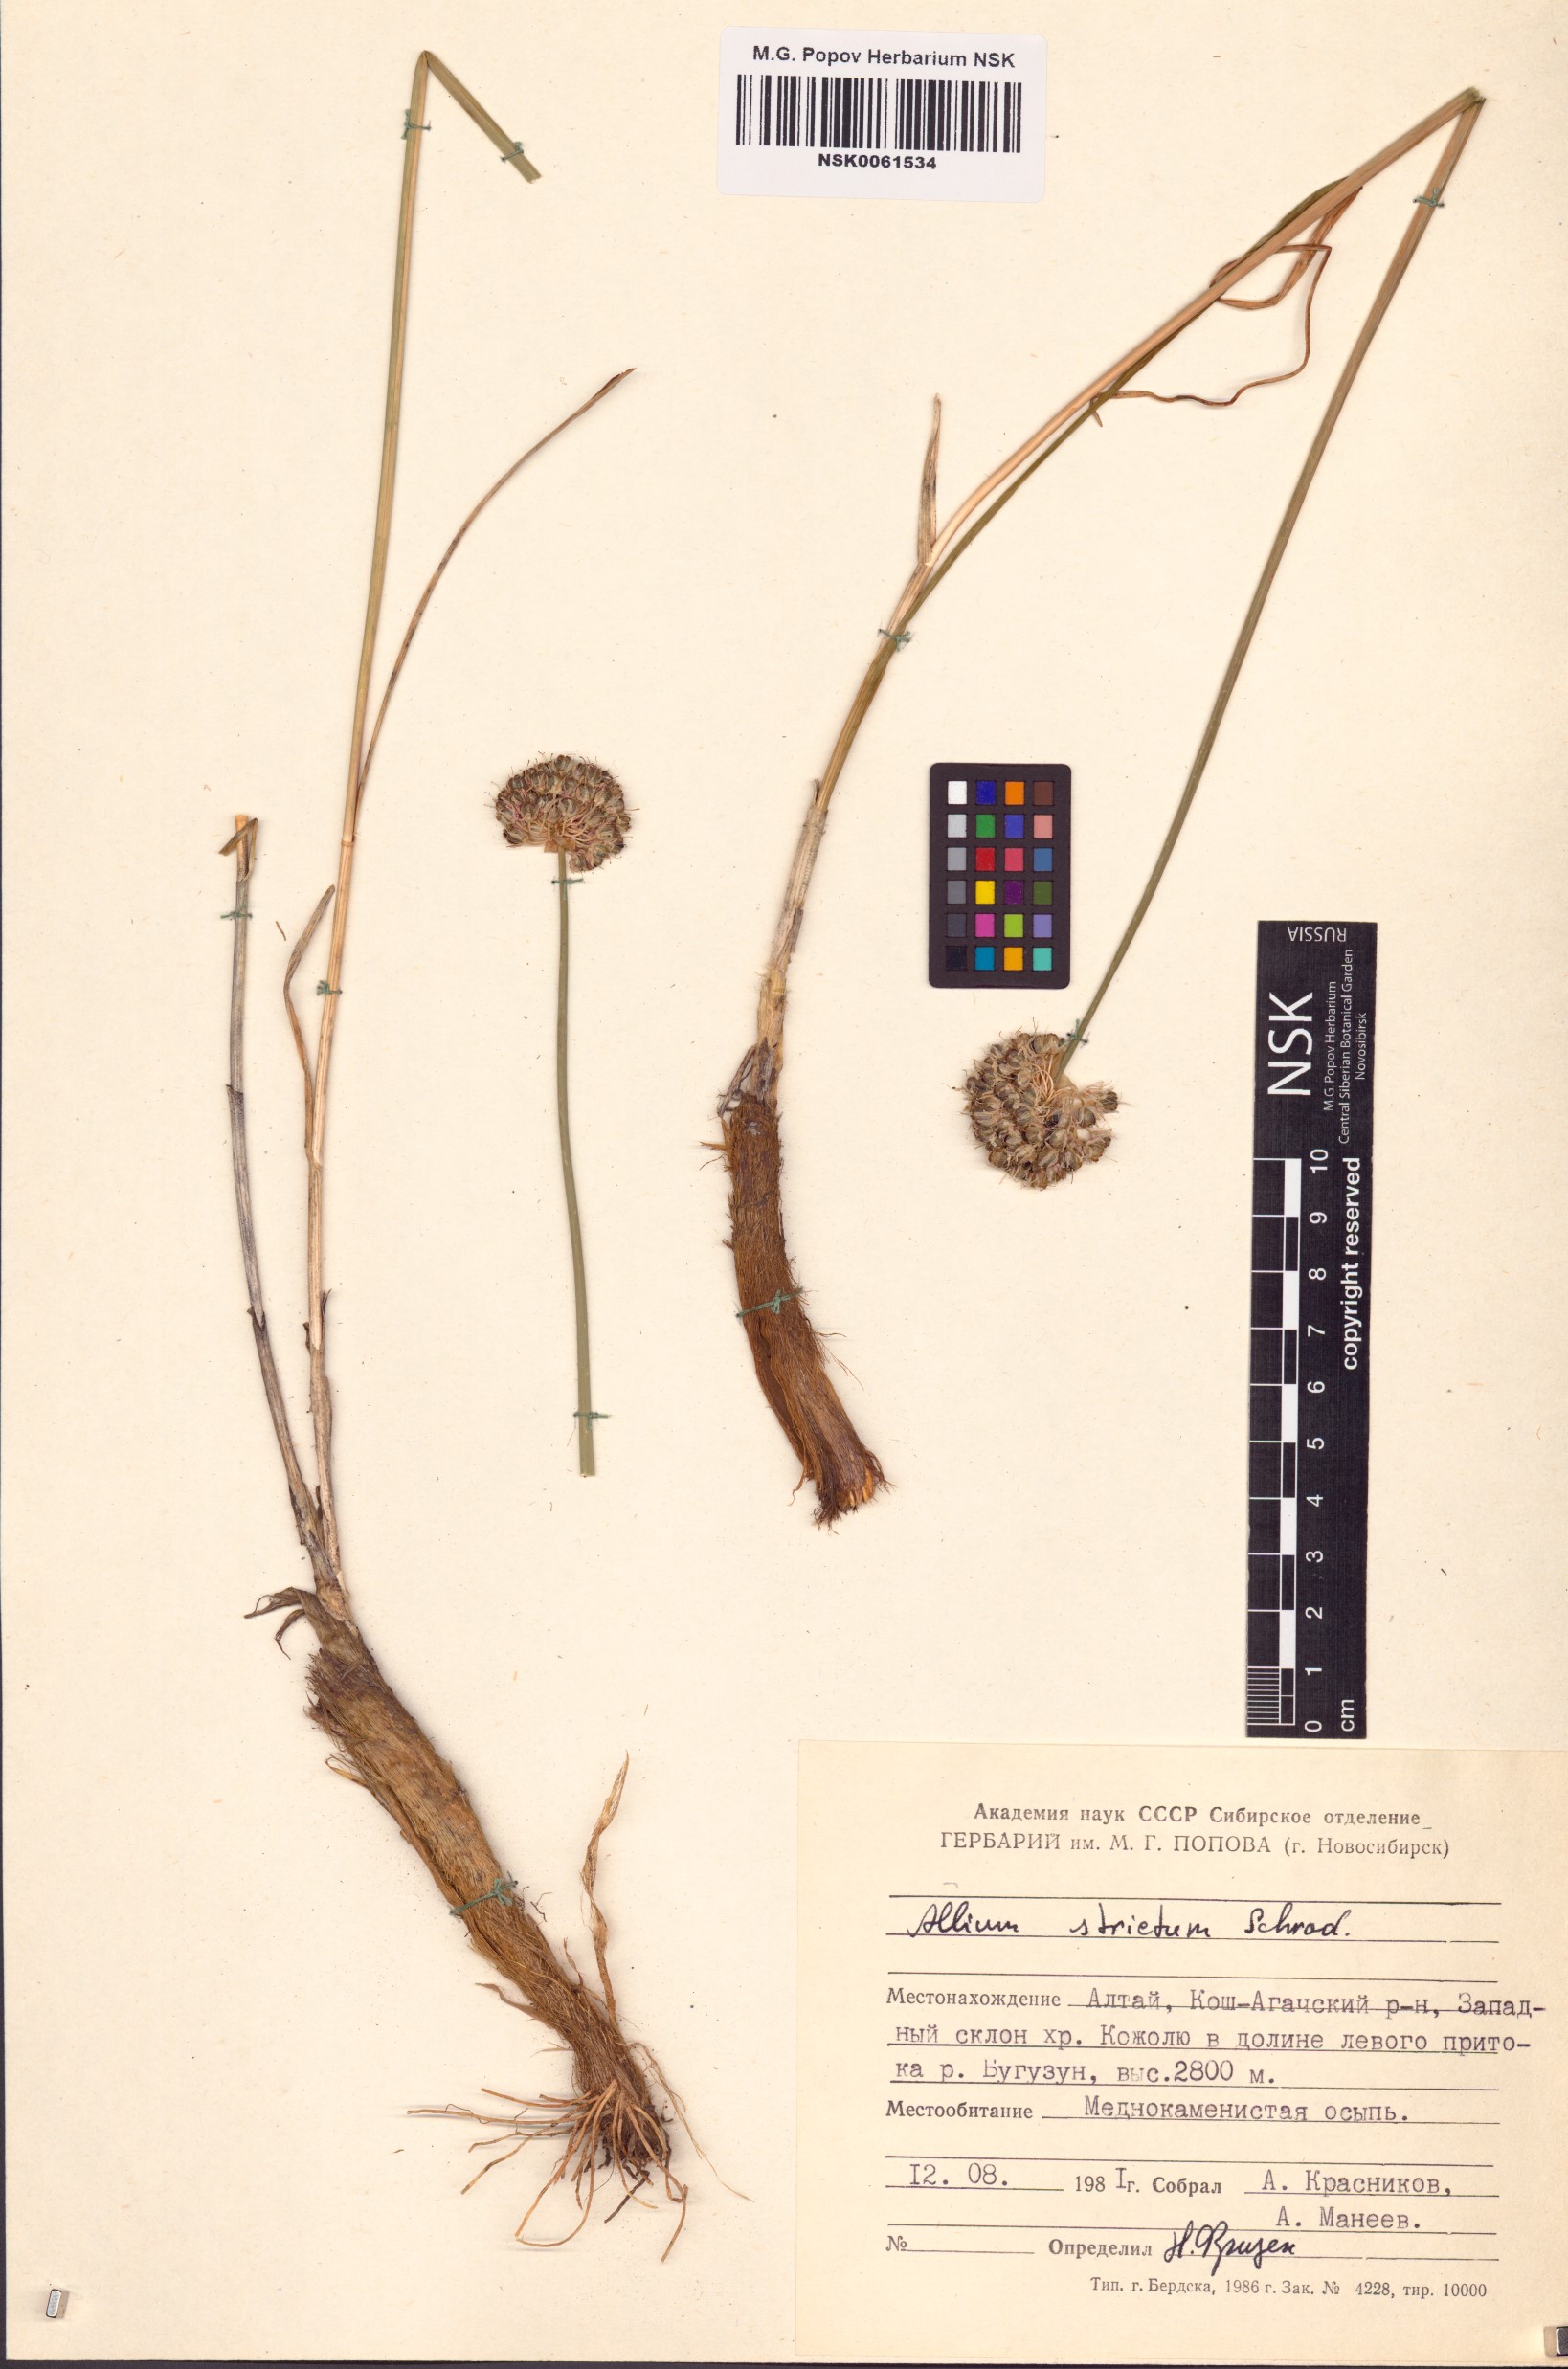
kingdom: Plantae
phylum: Tracheophyta
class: Liliopsida
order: Asparagales
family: Amaryllidaceae
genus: Allium
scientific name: Allium strictum
